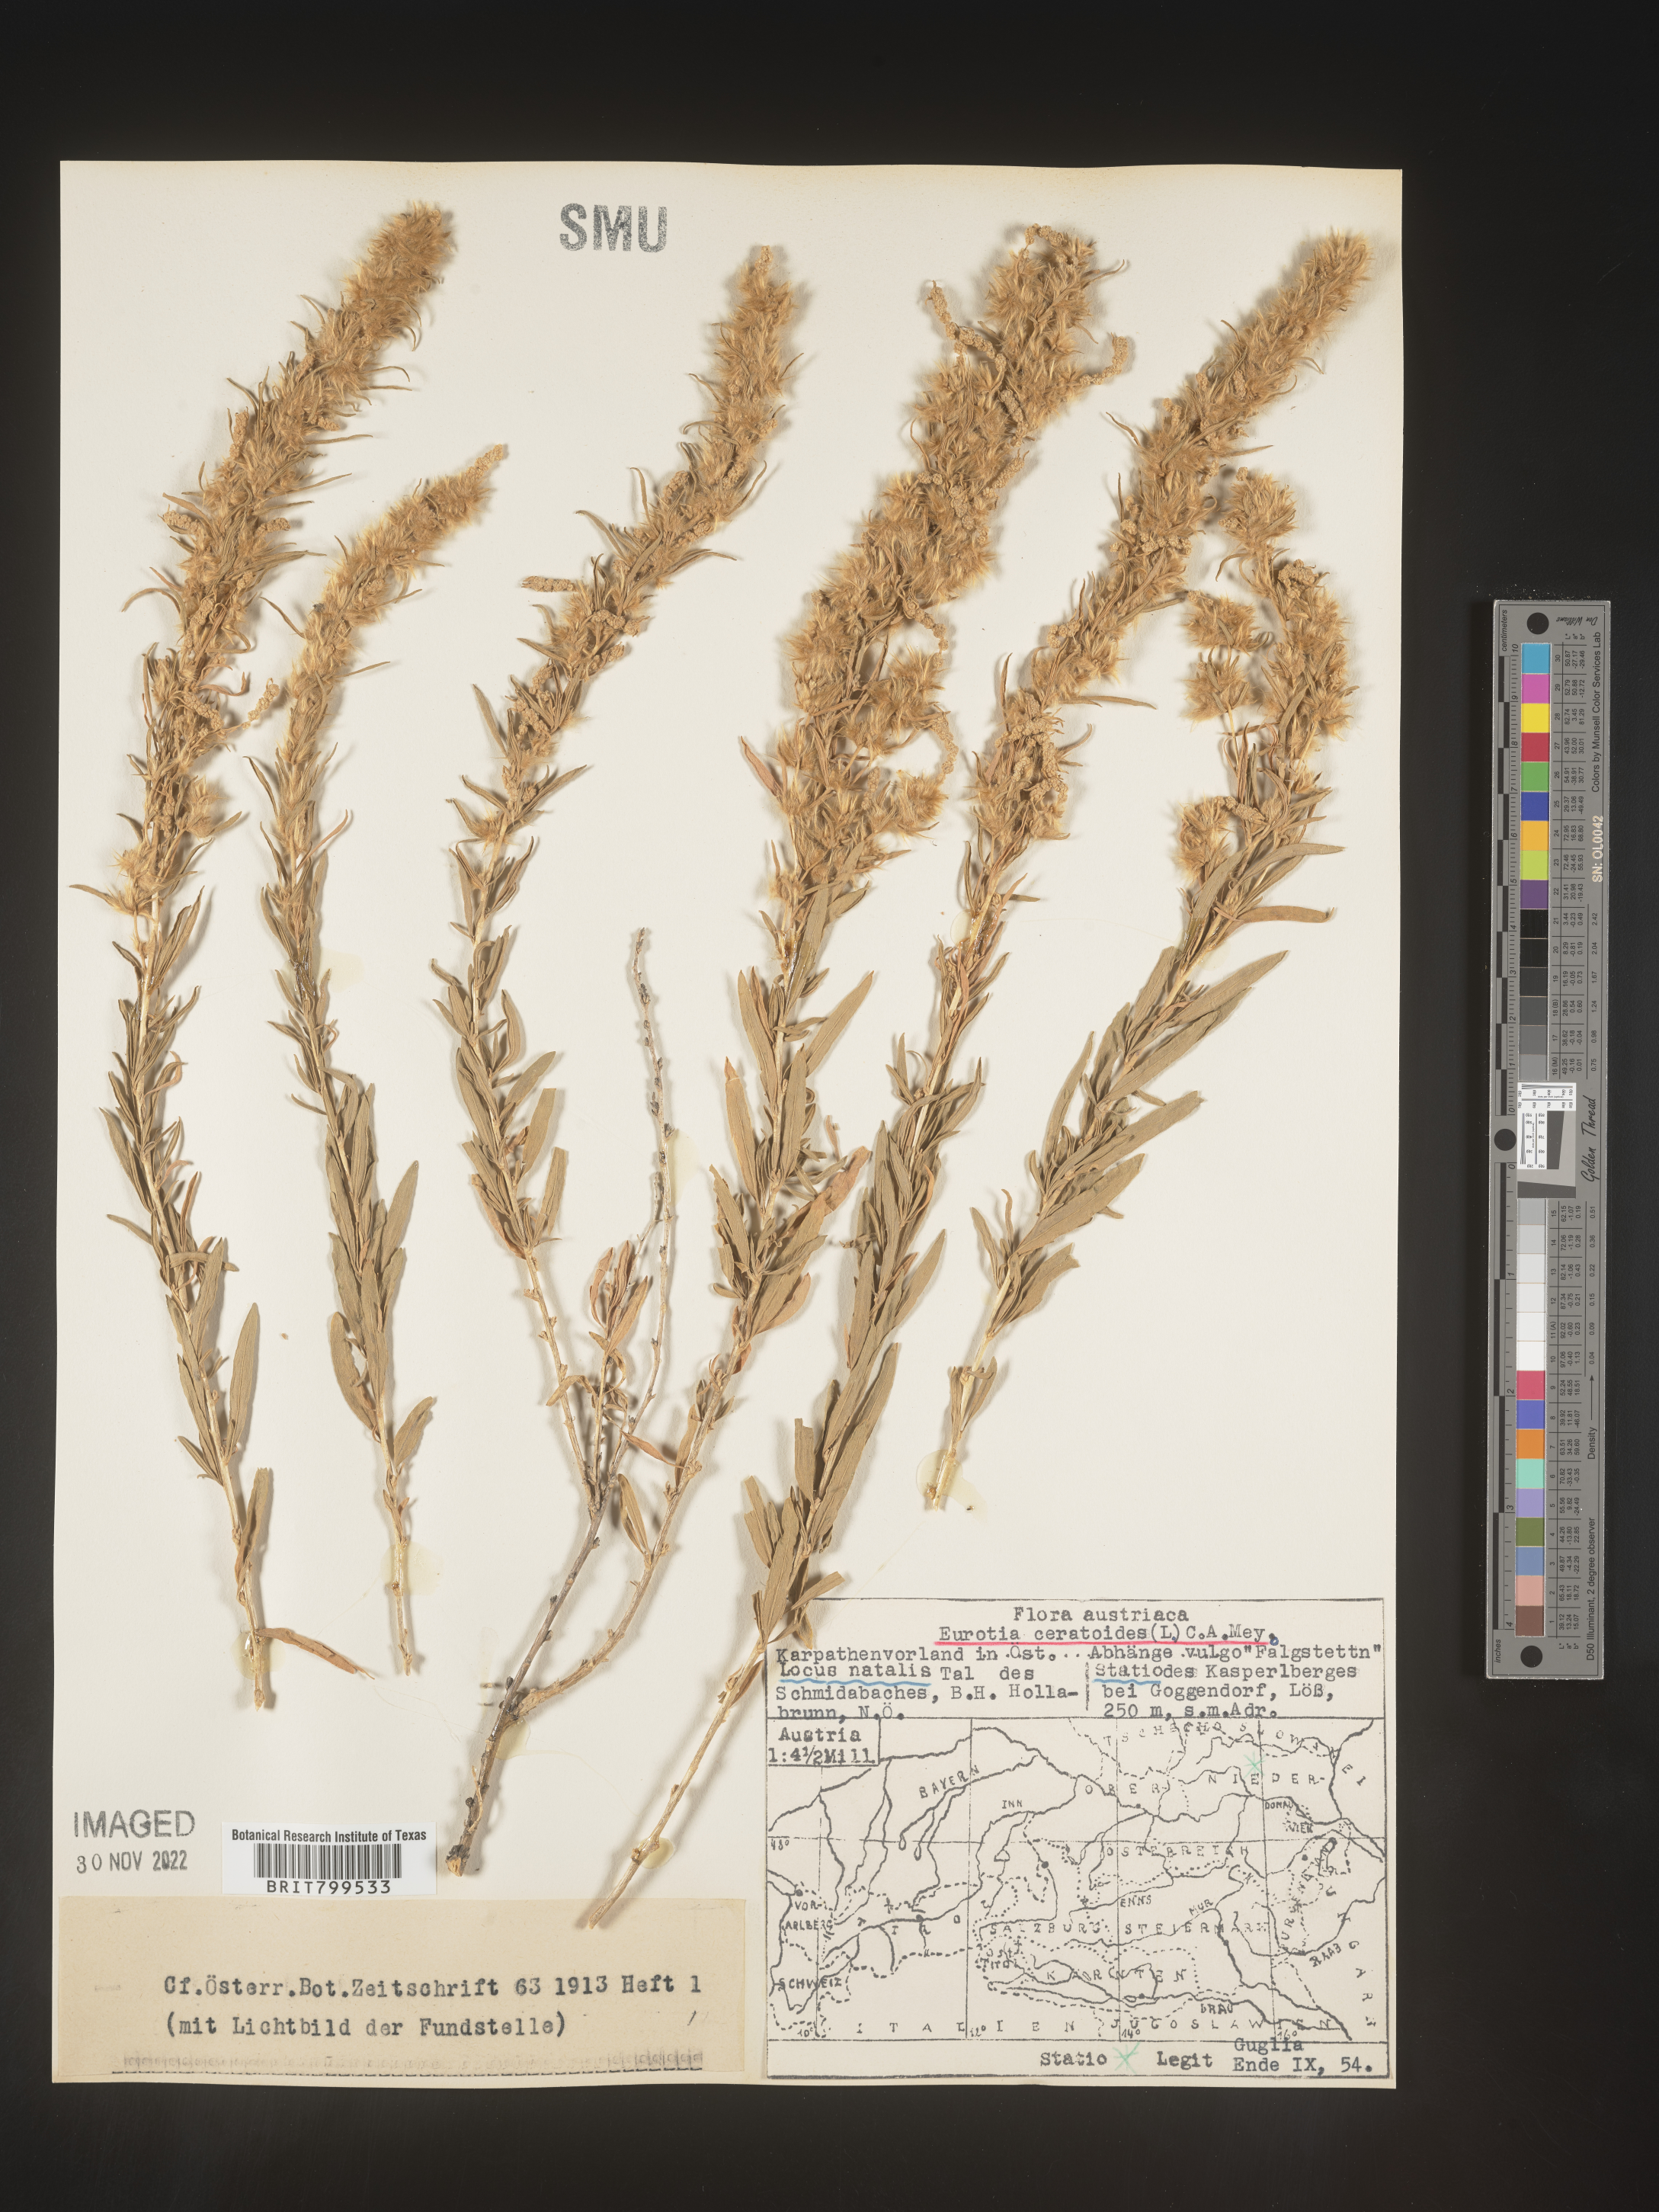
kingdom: Plantae
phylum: Tracheophyta
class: Magnoliopsida
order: Caryophyllales
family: Amaranthaceae
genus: Krascheninnikovia
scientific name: Krascheninnikovia
